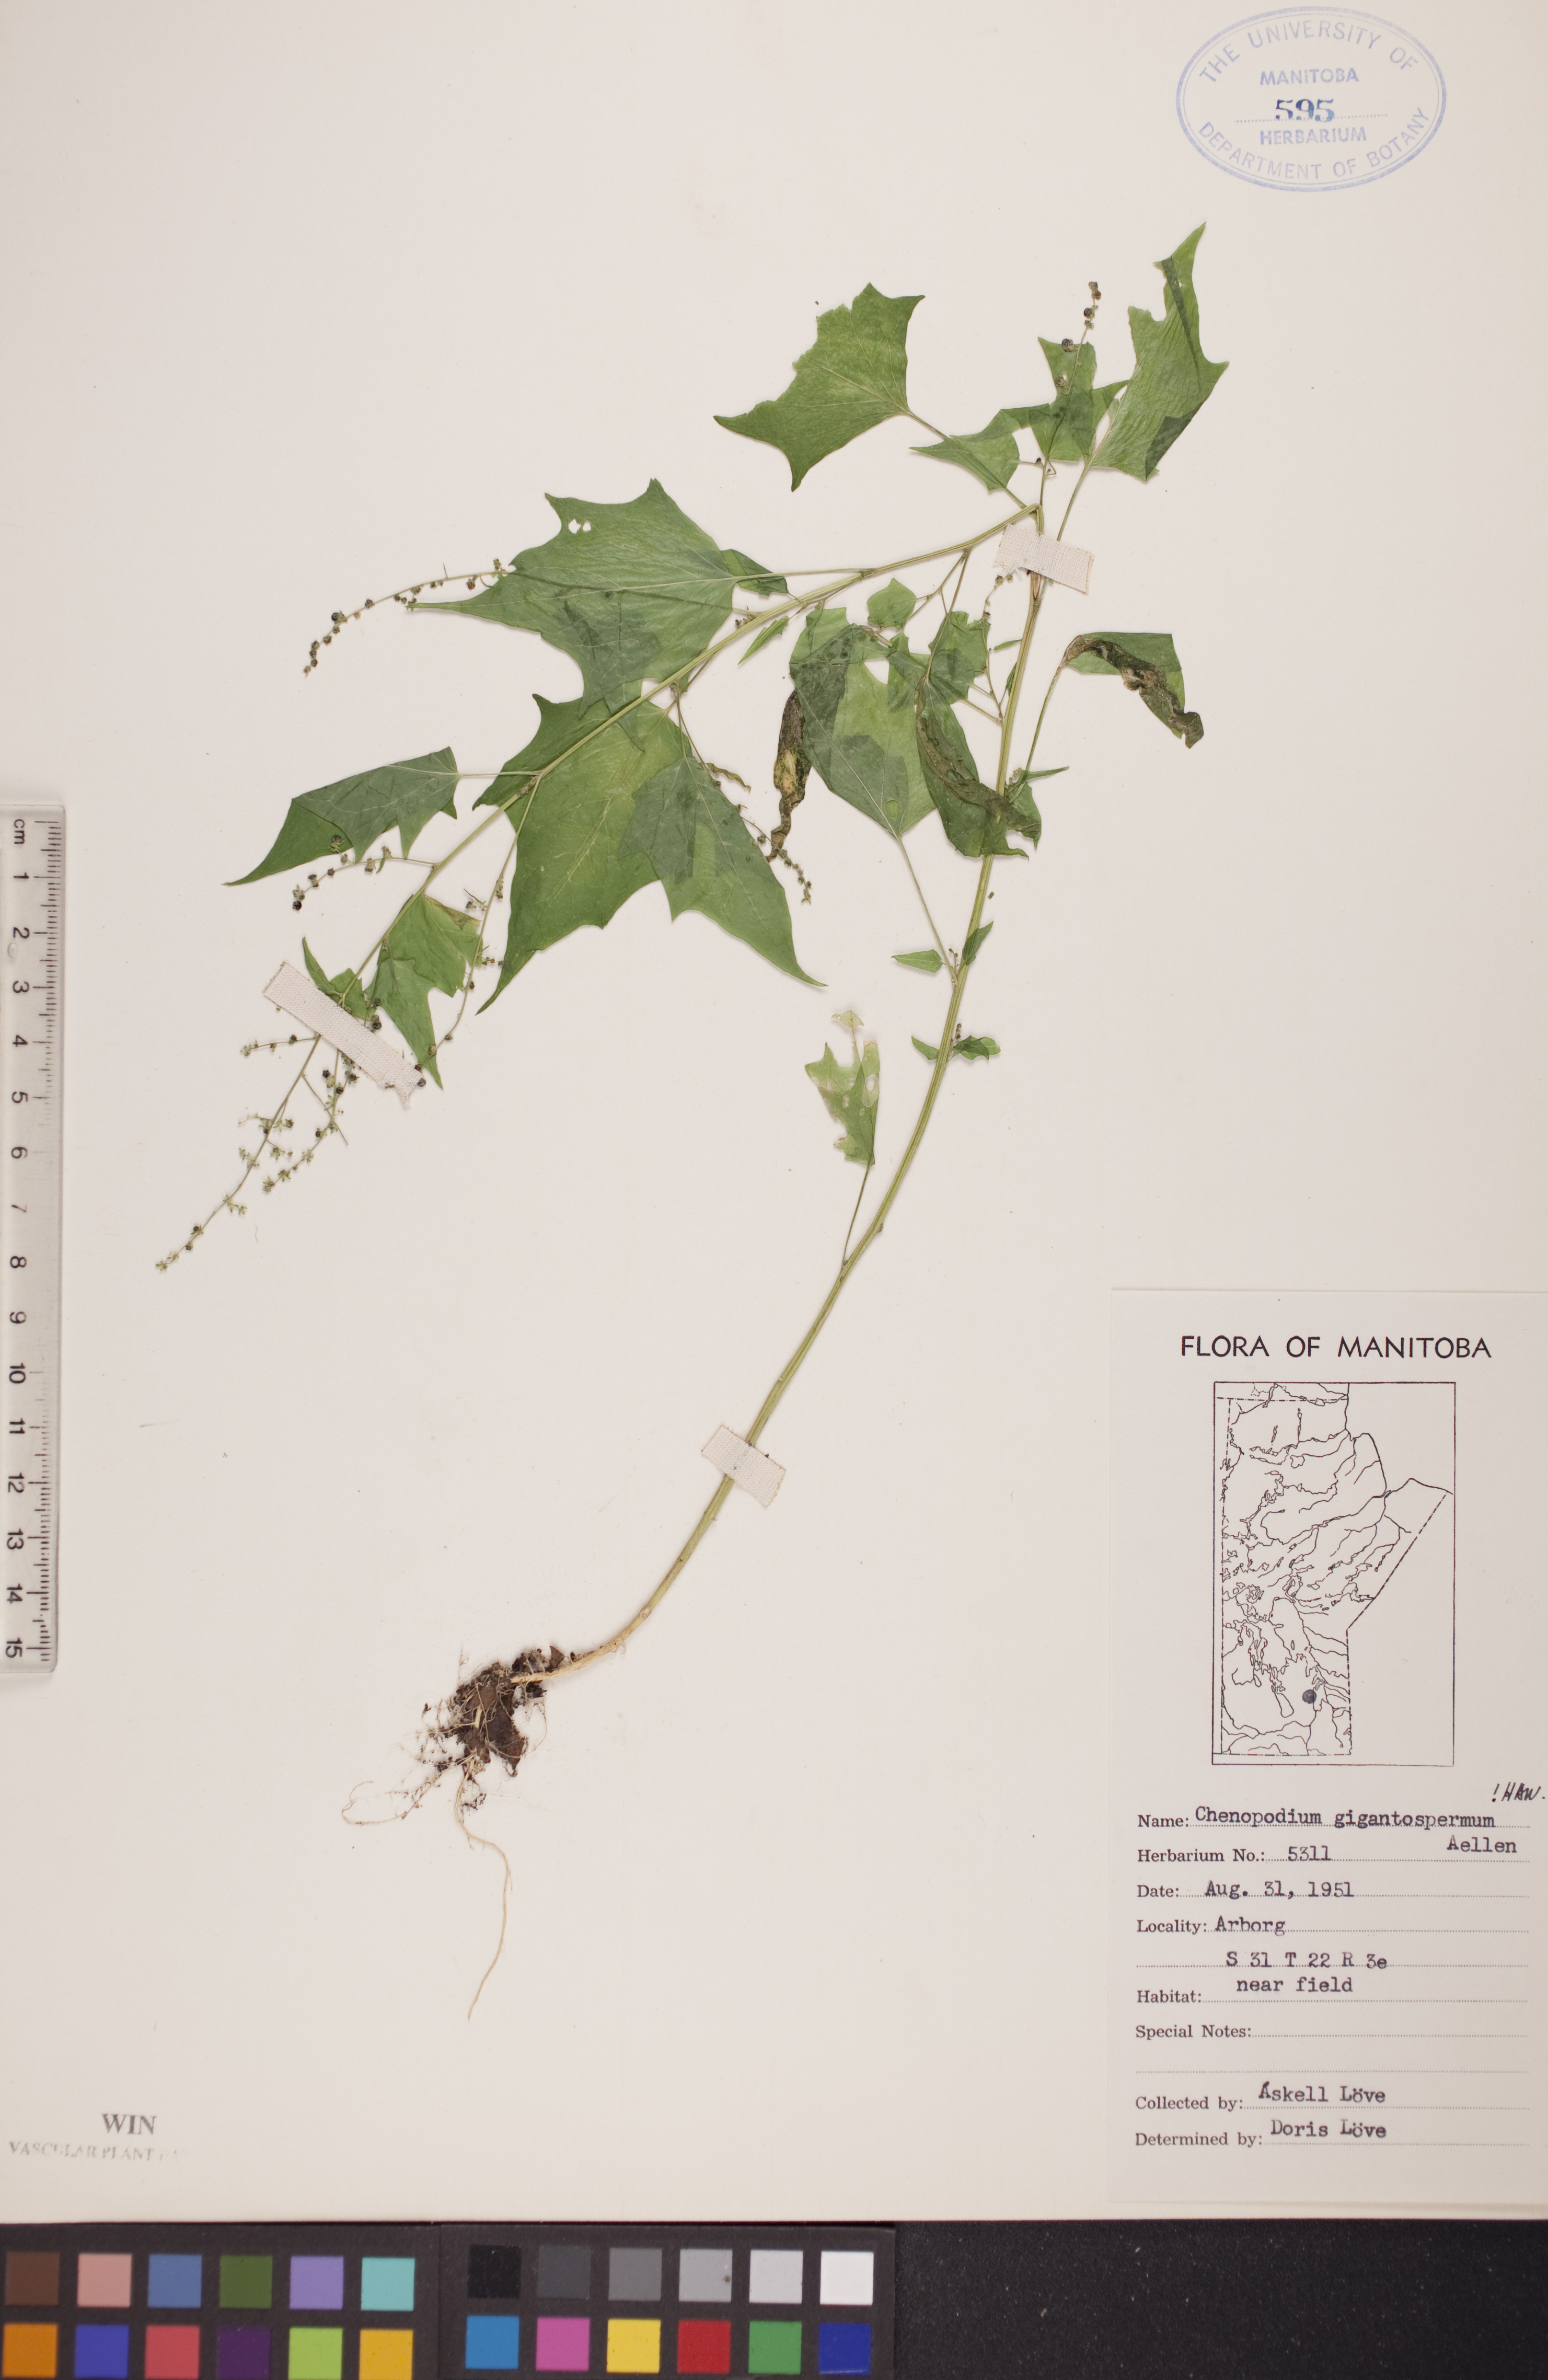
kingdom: Plantae
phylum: Tracheophyta
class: Magnoliopsida
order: Caryophyllales
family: Amaranthaceae
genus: Chenopodiastrum
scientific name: Chenopodiastrum simplex
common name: Large-seed goosefoot
